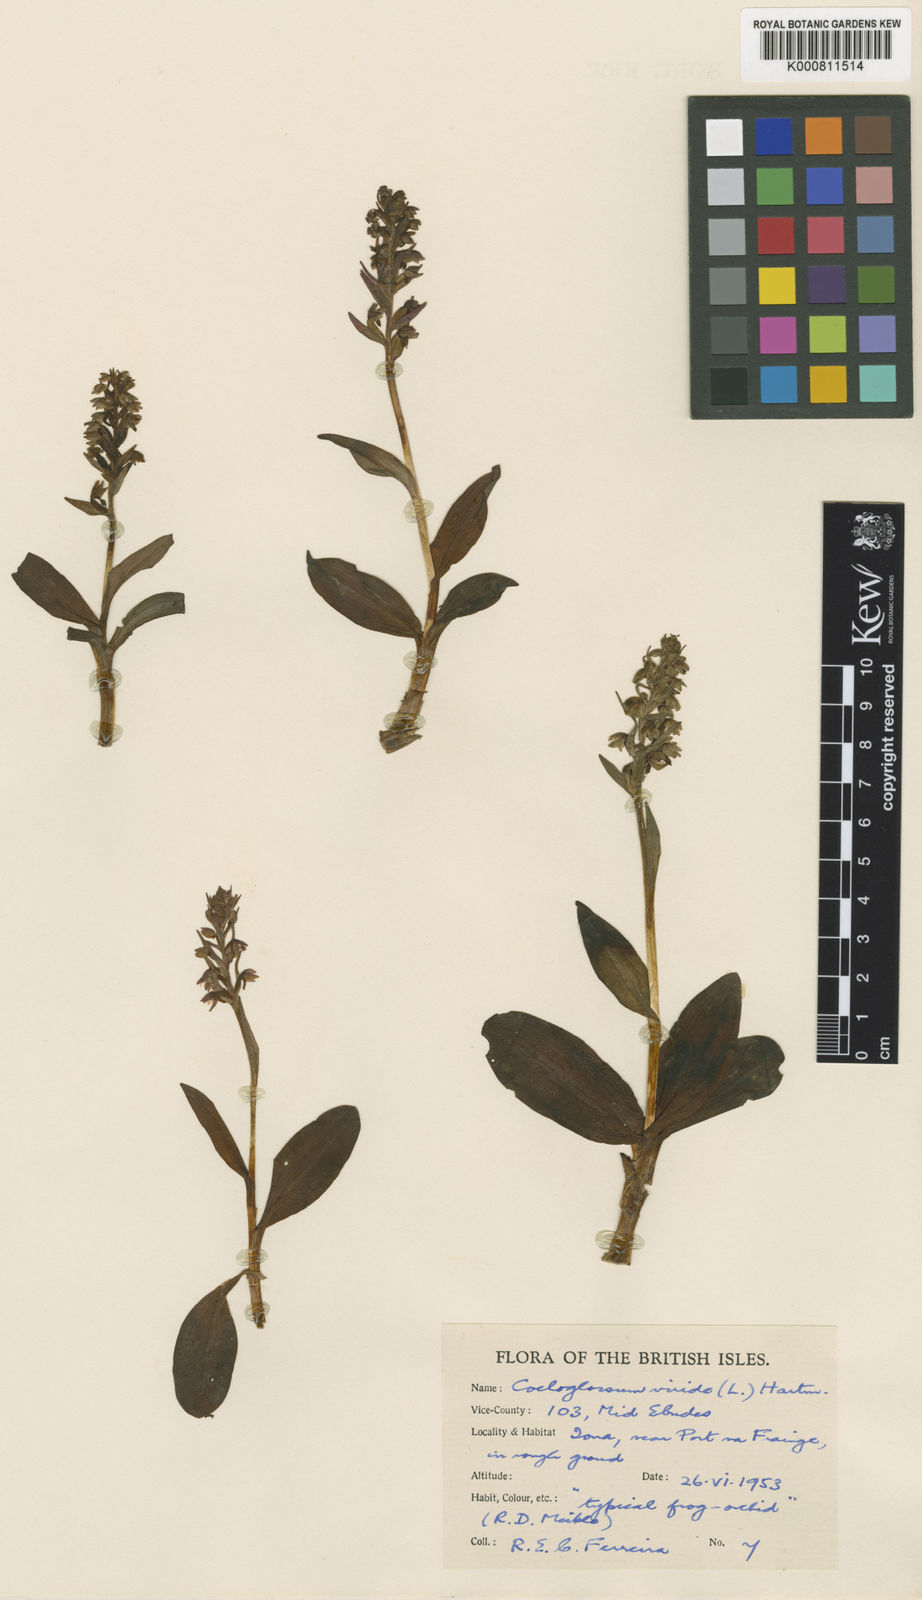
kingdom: Plantae
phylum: Tracheophyta
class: Liliopsida
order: Asparagales
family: Orchidaceae
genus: Dactylorhiza
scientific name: Dactylorhiza viridis
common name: Longbract frog orchid
